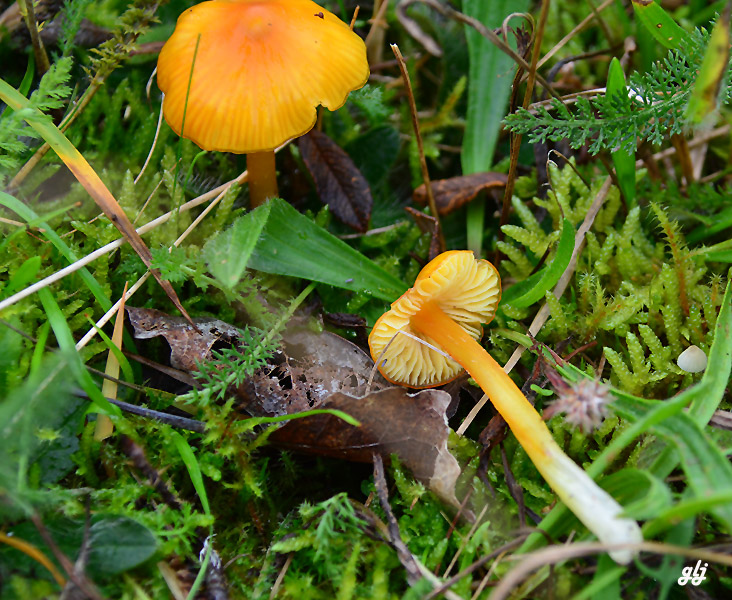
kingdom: Fungi
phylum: Basidiomycota
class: Agaricomycetes
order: Agaricales
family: Hygrophoraceae
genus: Hygrocybe
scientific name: Hygrocybe
